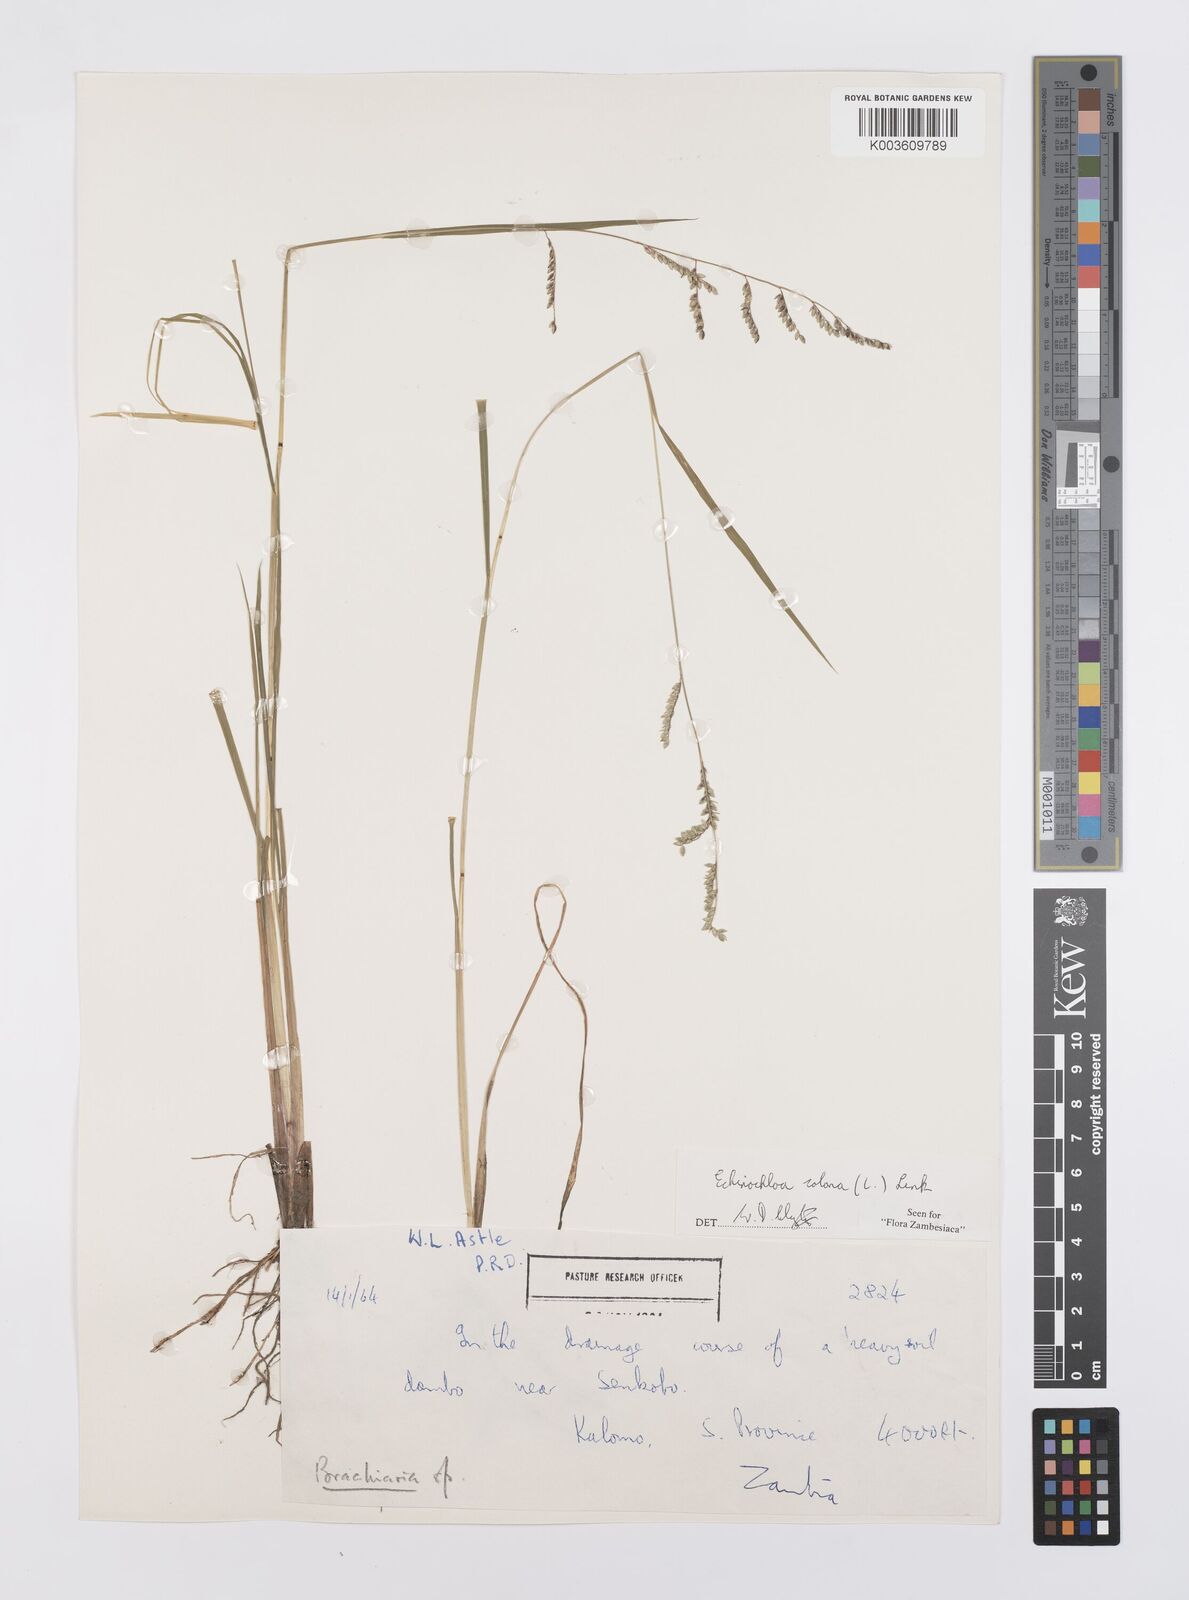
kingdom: Plantae
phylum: Tracheophyta
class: Liliopsida
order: Poales
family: Poaceae
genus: Echinochloa
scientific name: Echinochloa colonum
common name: Jungle rice
